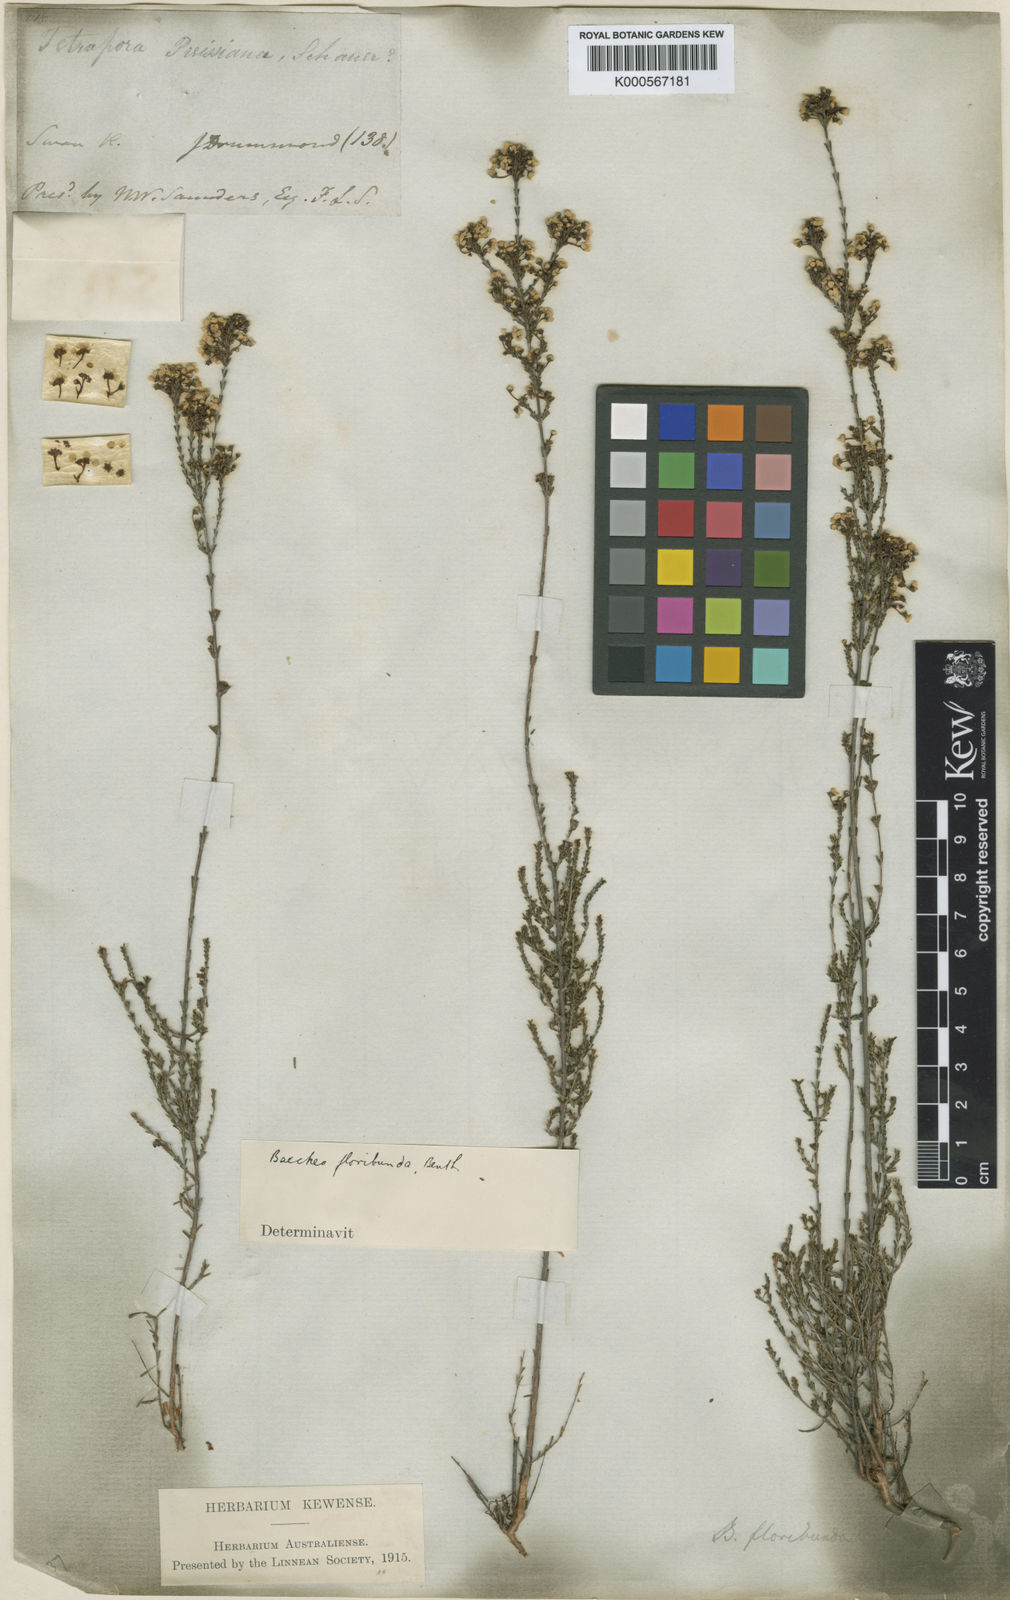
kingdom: Plantae
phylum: Tracheophyta
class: Magnoliopsida
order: Myrtales
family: Myrtaceae
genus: Baeckea
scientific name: Baeckea floribunda
